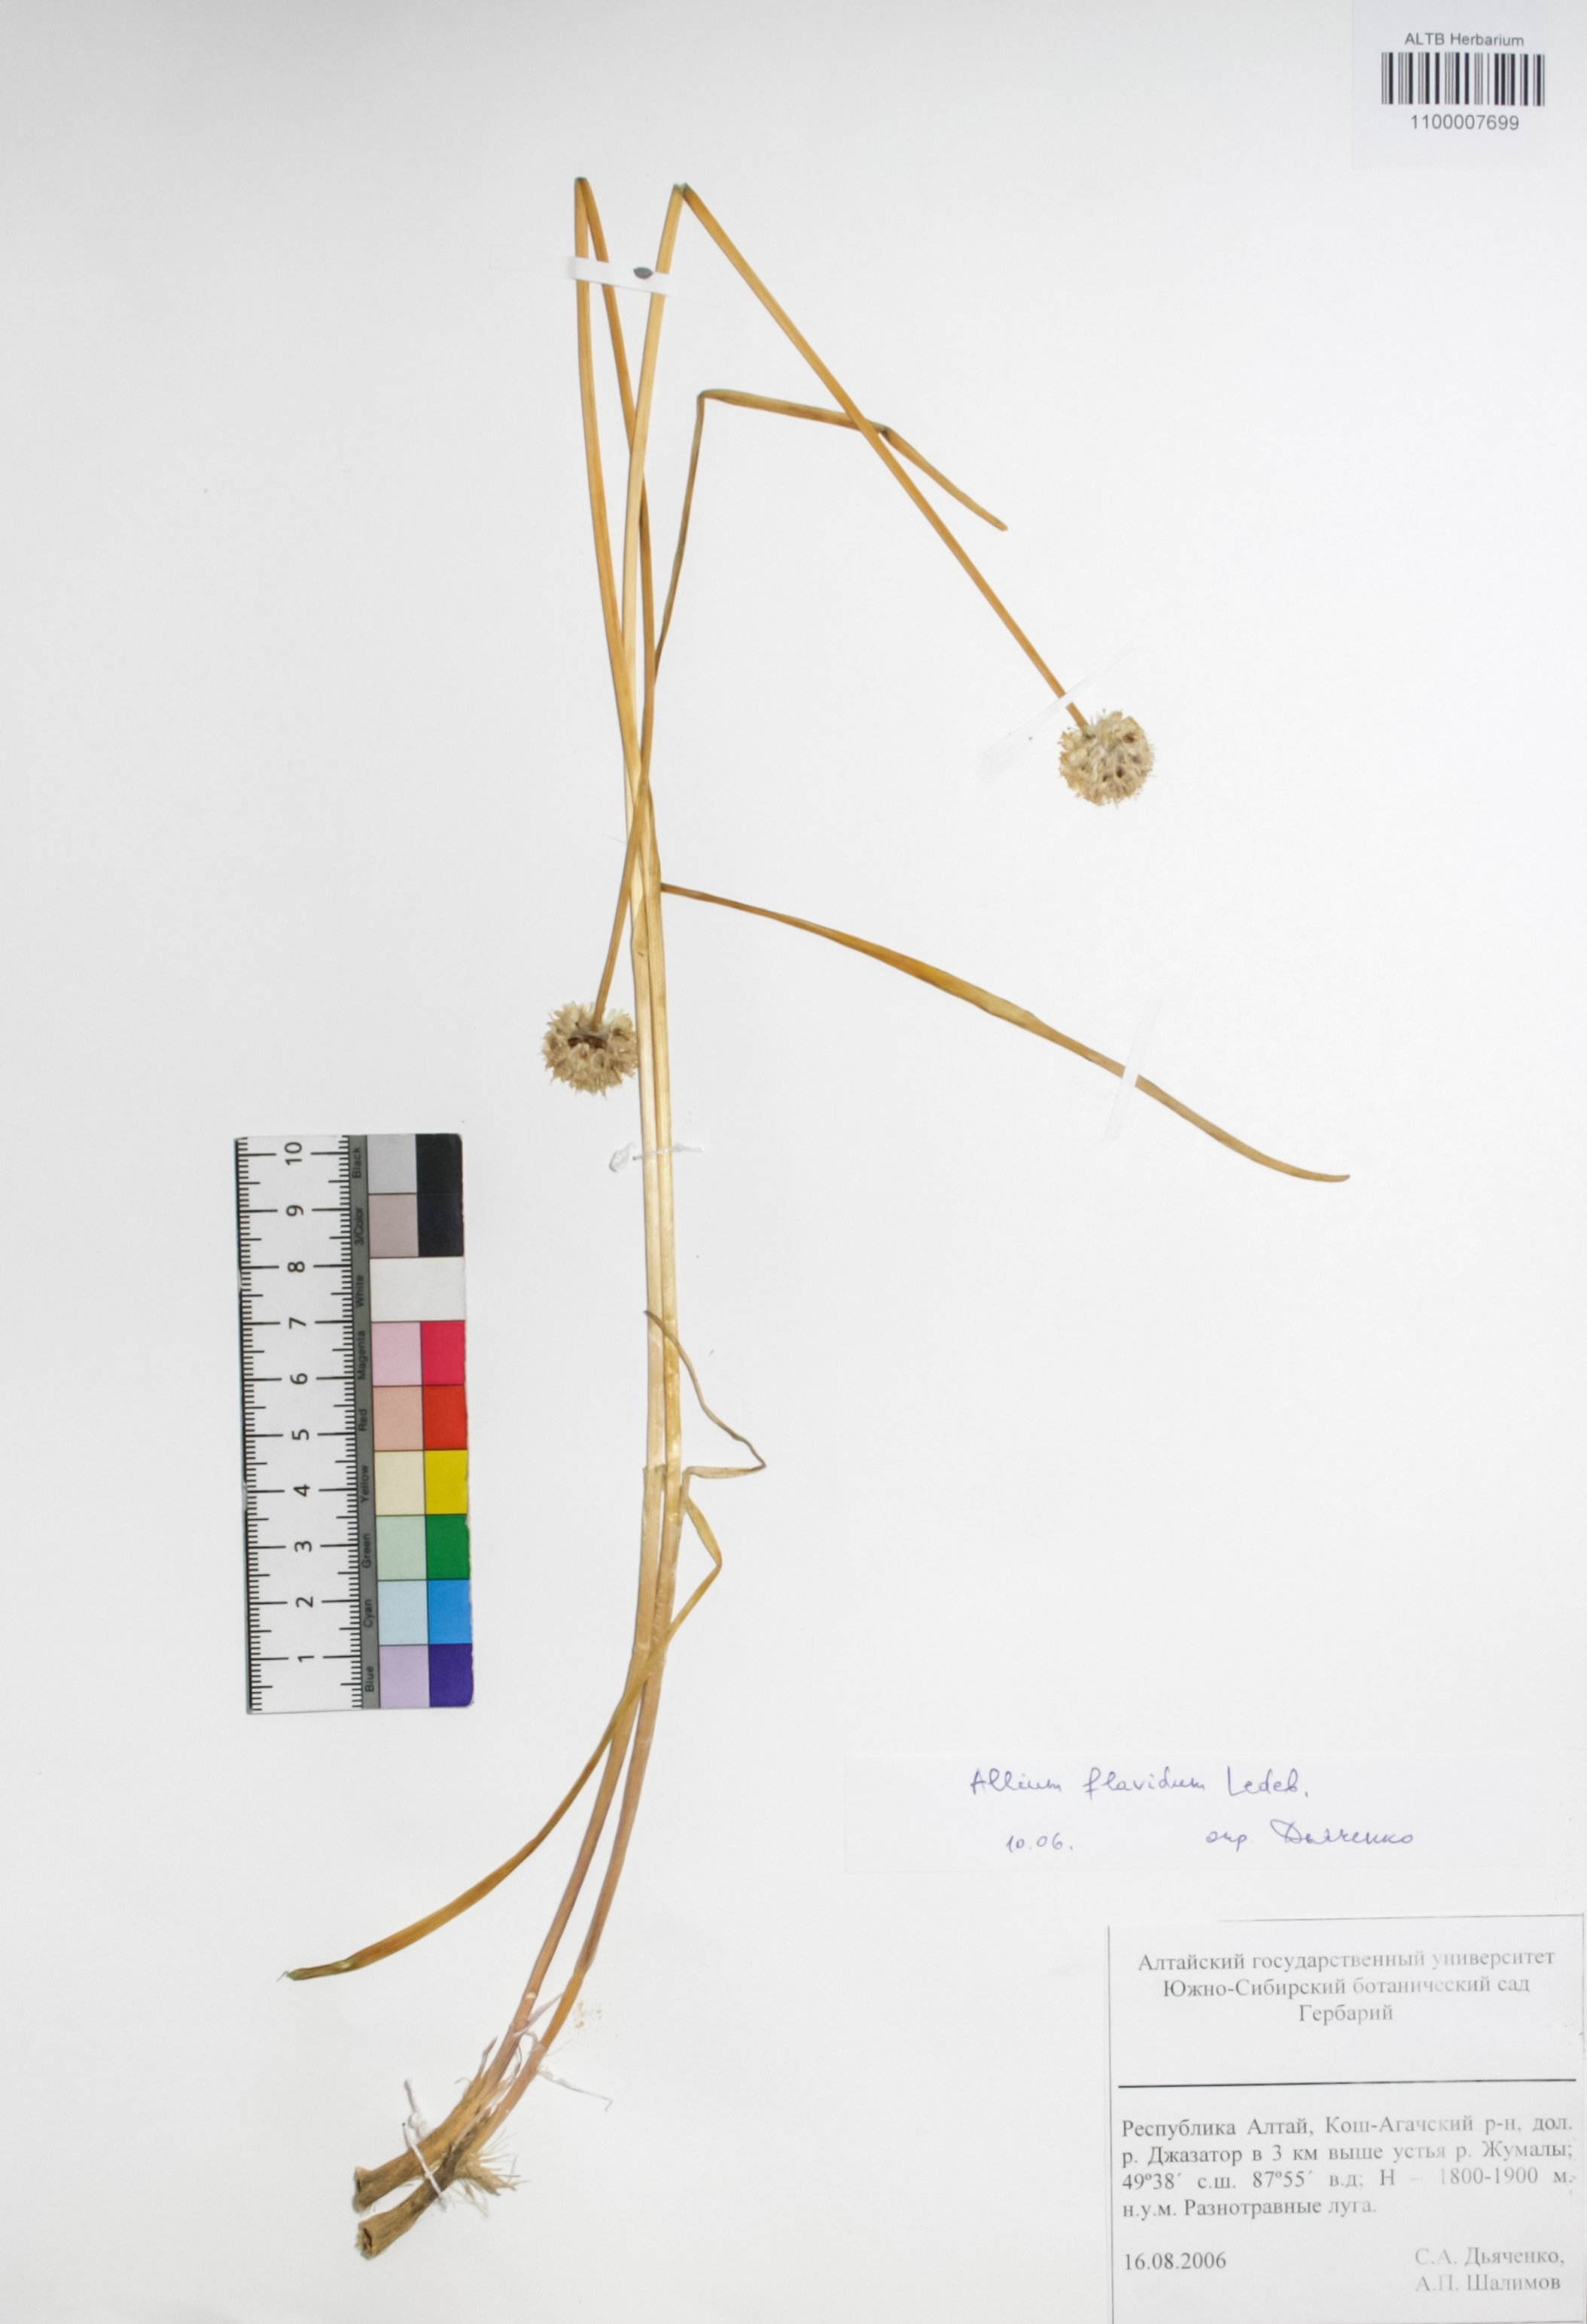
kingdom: Plantae
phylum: Tracheophyta
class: Liliopsida
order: Asparagales
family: Amaryllidaceae
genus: Allium
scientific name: Allium flavidum
